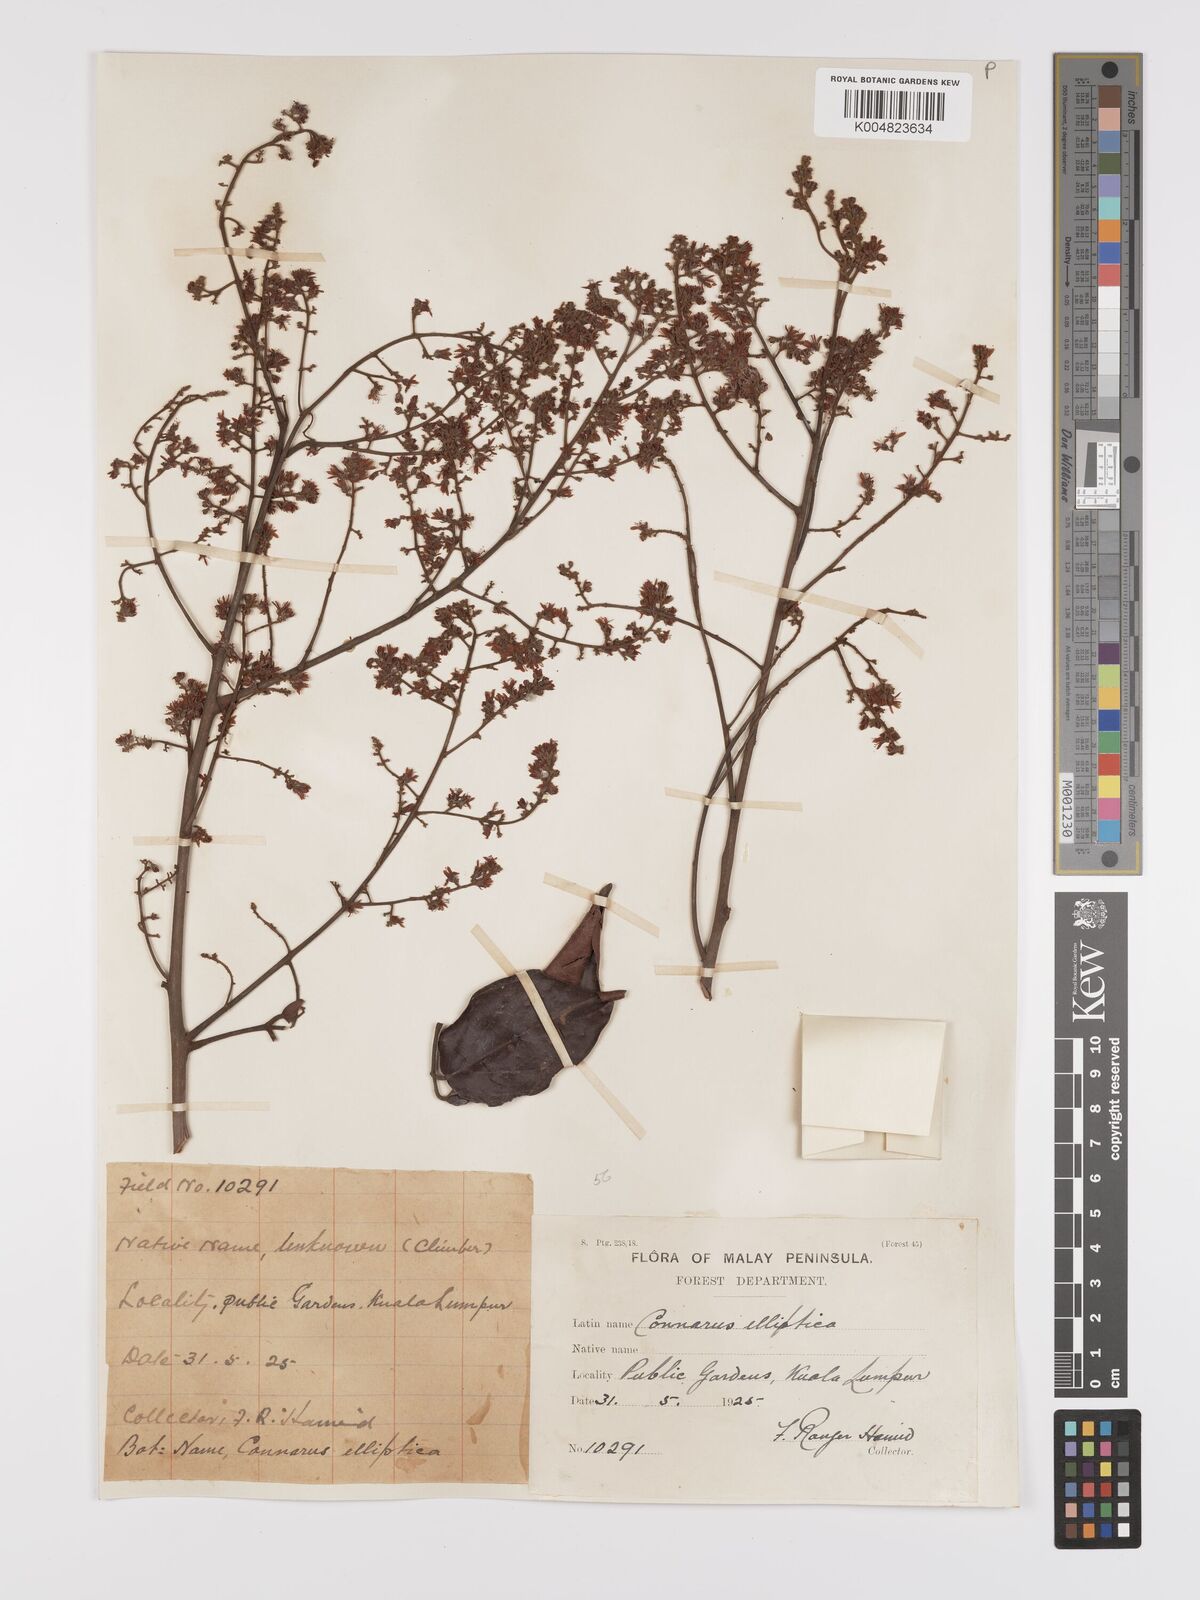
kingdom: Plantae
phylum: Tracheophyta
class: Magnoliopsida
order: Oxalidales
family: Connaraceae
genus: Connarus
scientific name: Connarus grandis
